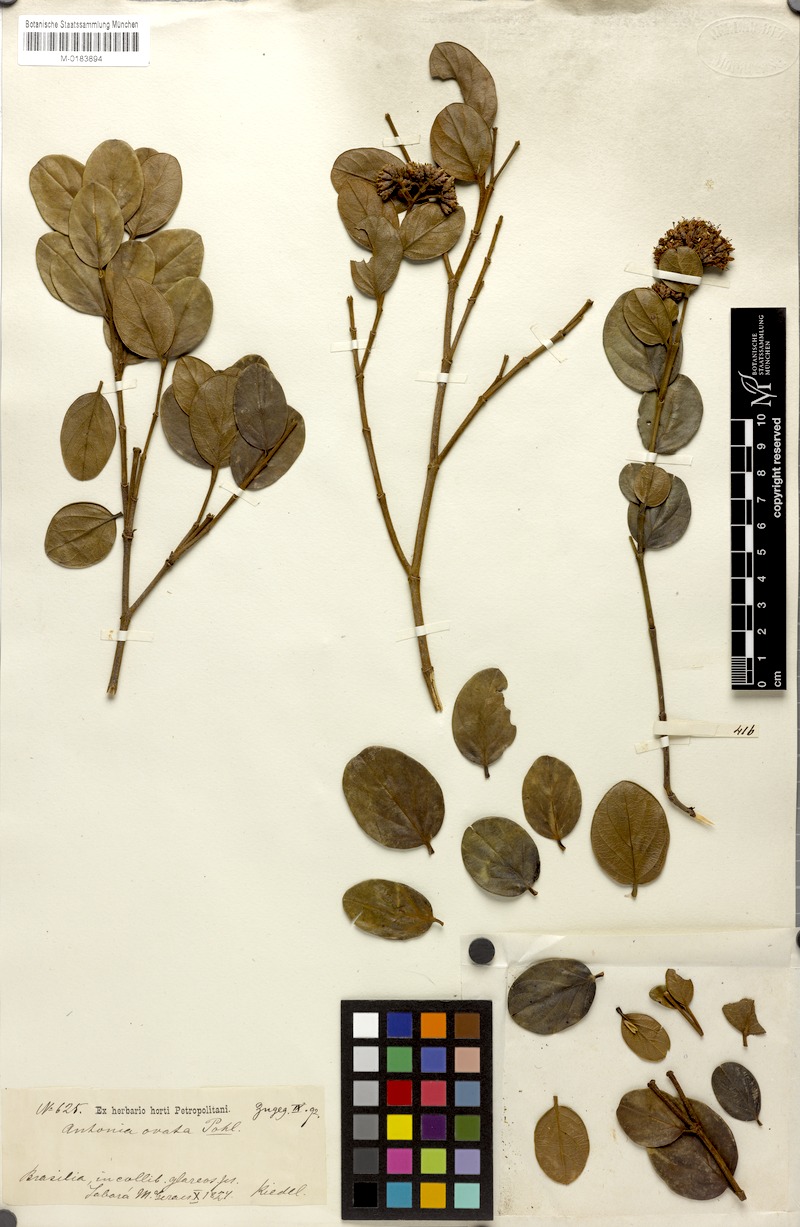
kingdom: Plantae
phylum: Tracheophyta
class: Magnoliopsida
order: Gentianales
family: Loganiaceae
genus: Antonia
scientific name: Antonia ovata
